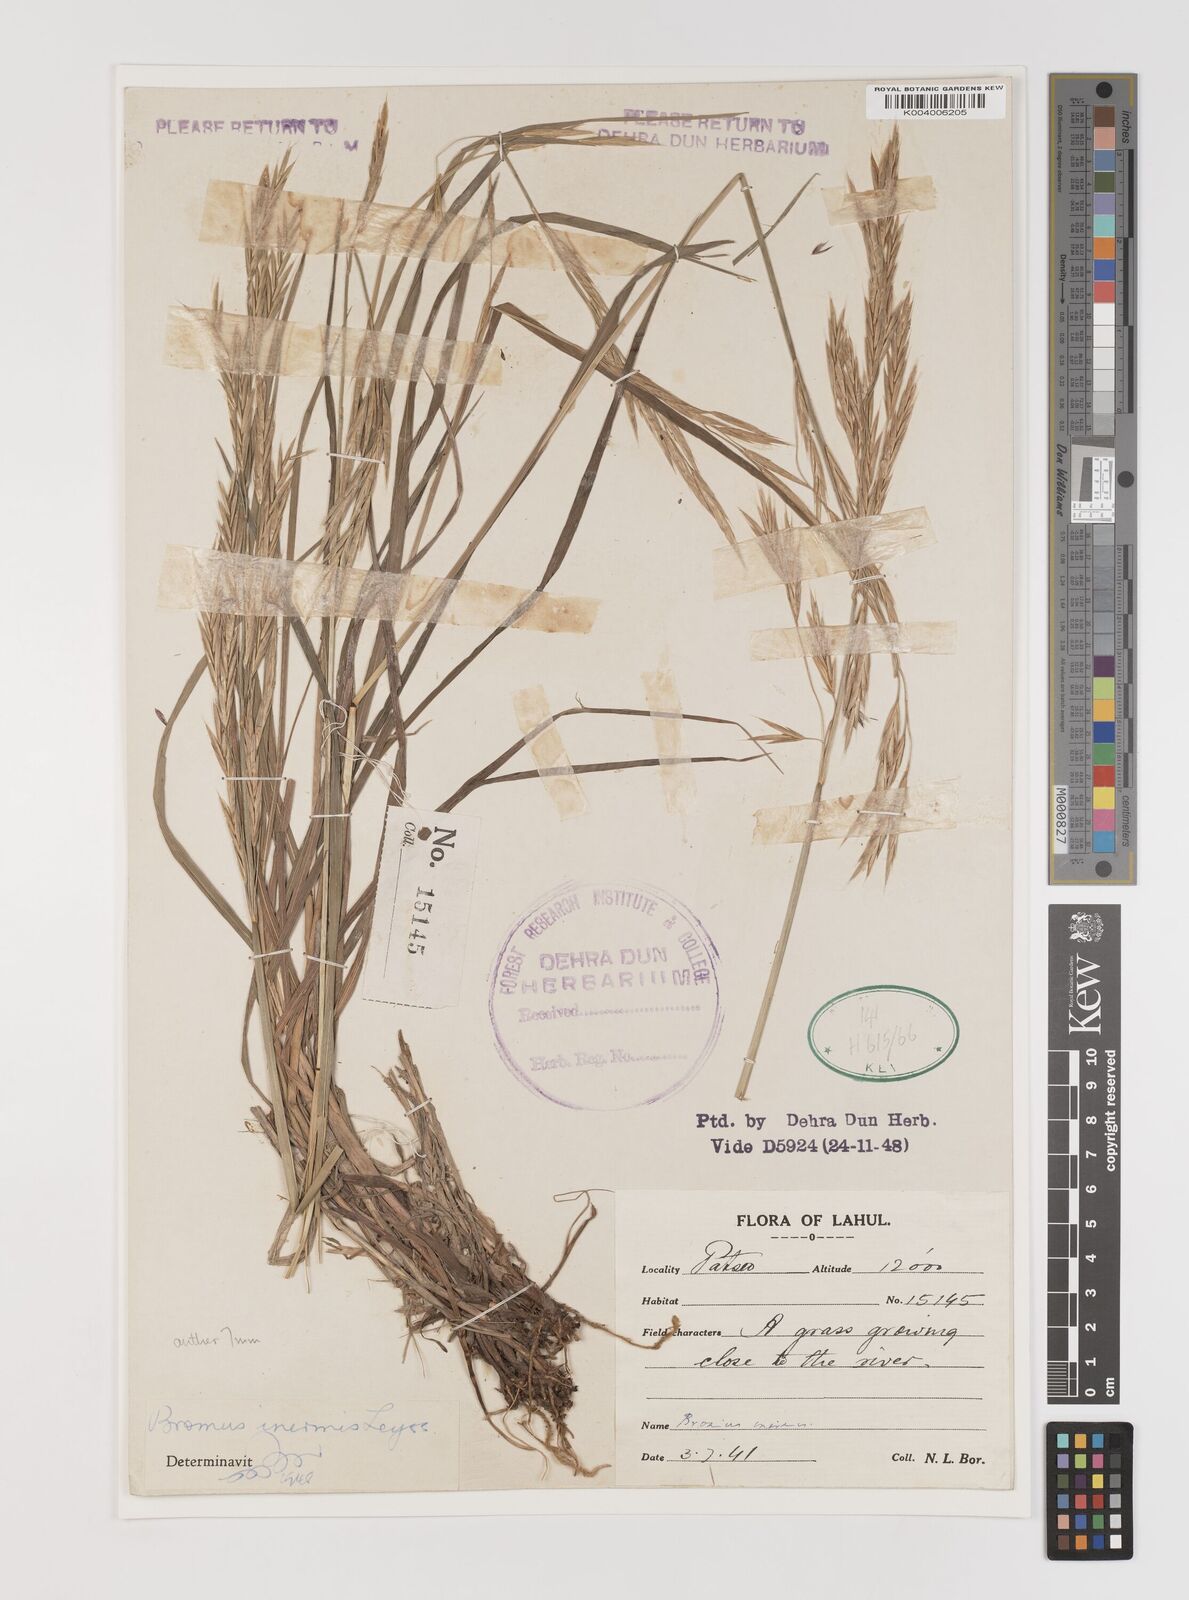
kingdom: Plantae
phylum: Tracheophyta
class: Liliopsida
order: Poales
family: Poaceae
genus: Bromus
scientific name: Bromus inermis
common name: Smooth brome
